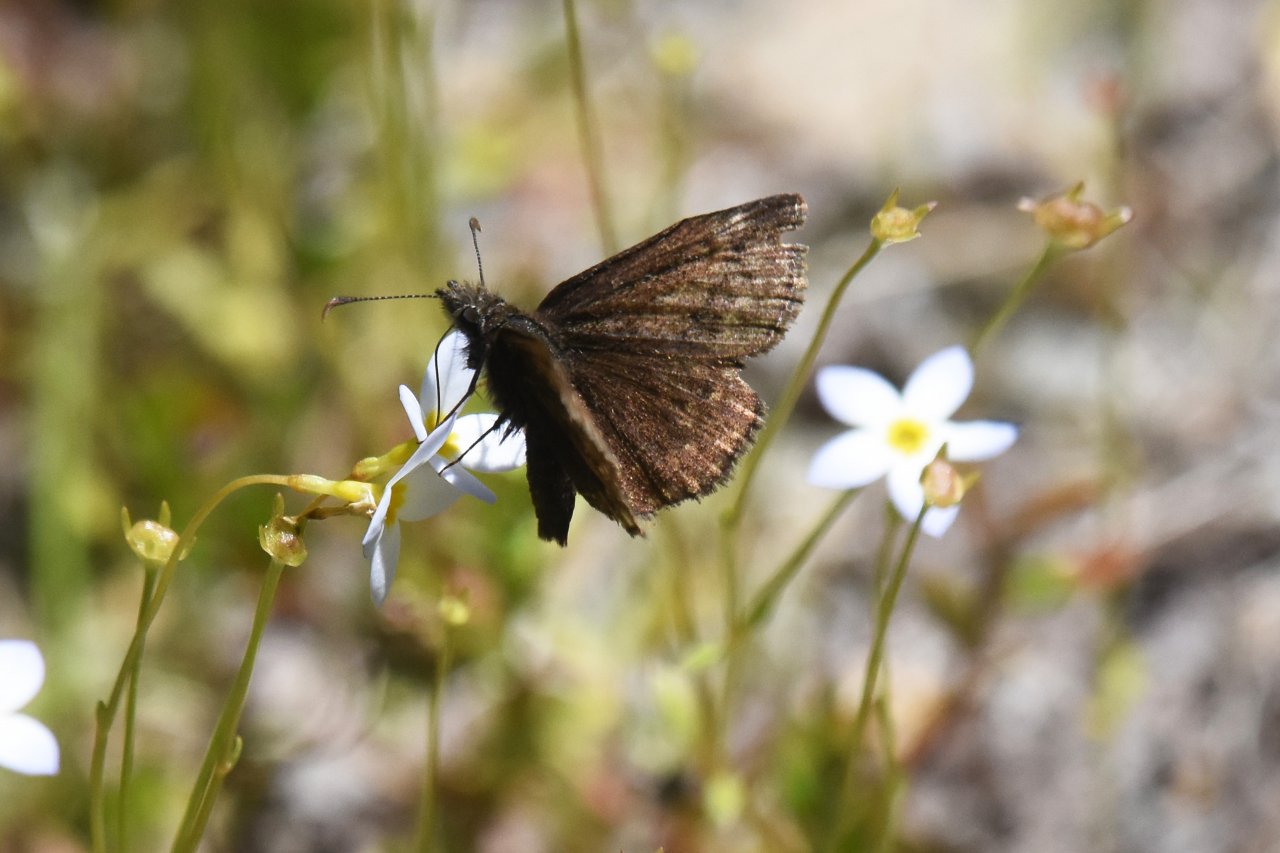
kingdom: Animalia
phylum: Arthropoda
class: Insecta
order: Lepidoptera
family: Hesperiidae
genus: Erynnis
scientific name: Erynnis icelus
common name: Dreamy Duskywing
